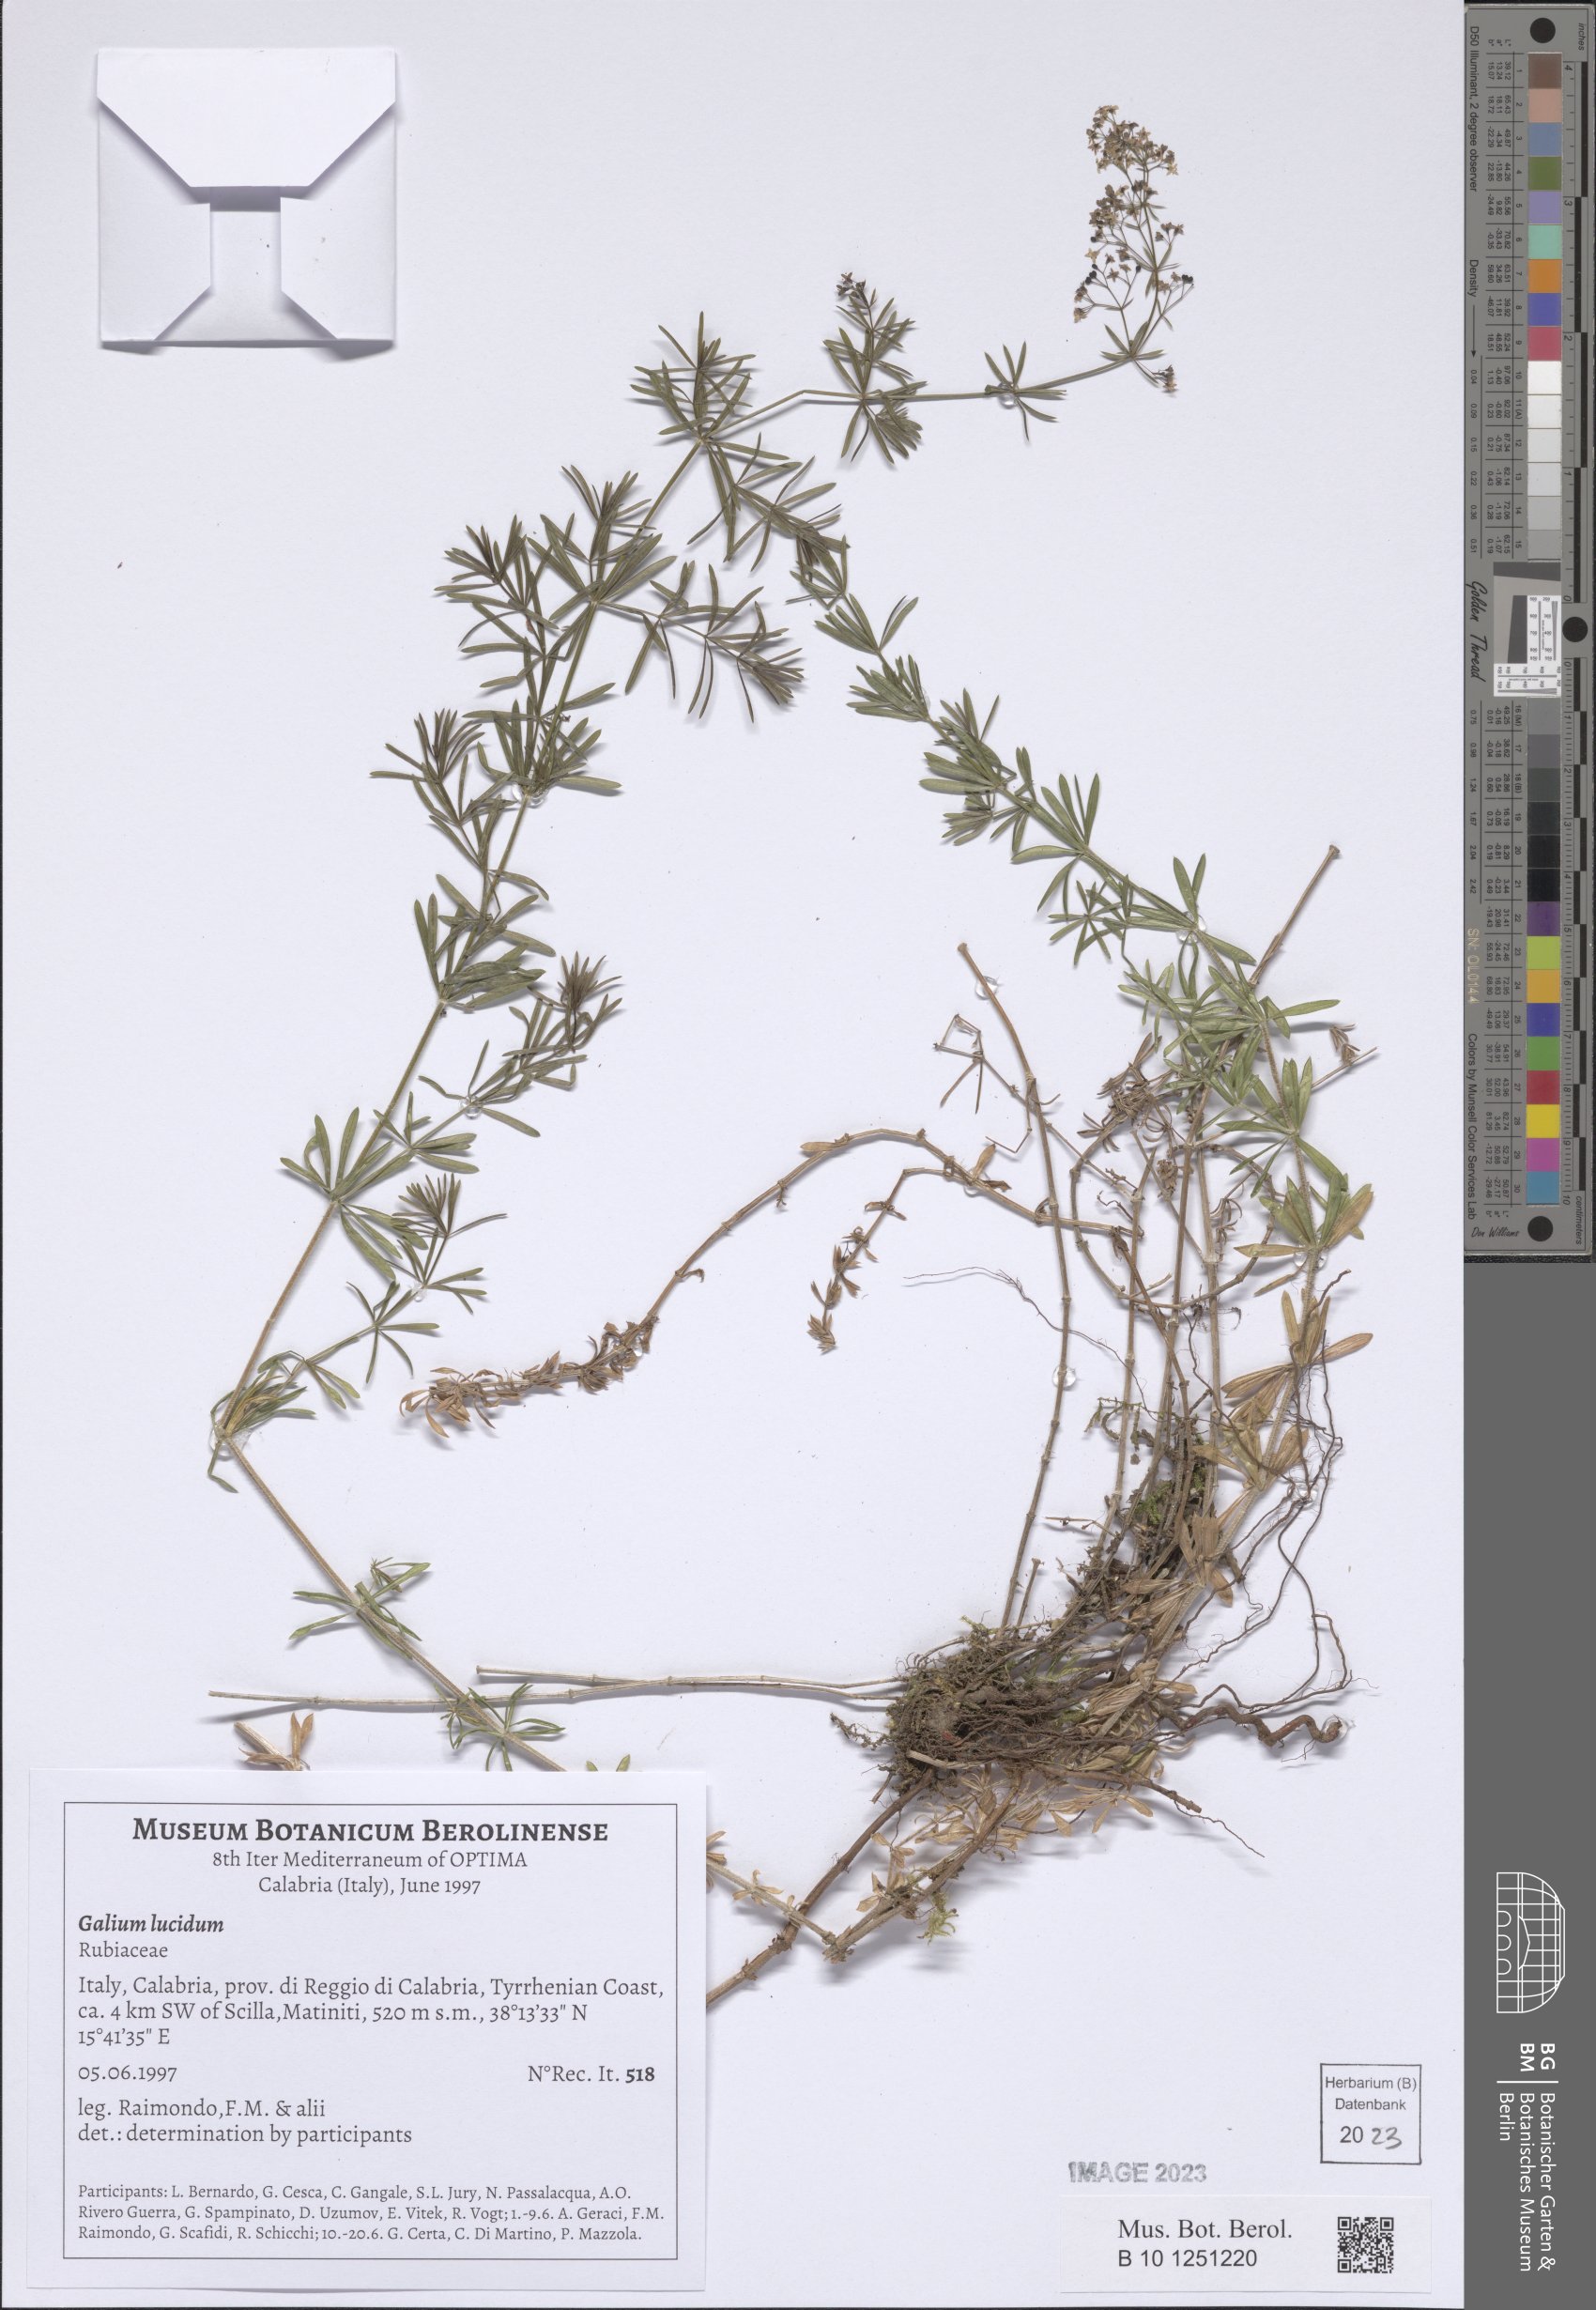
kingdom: Plantae
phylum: Tracheophyta
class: Magnoliopsida
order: Gentianales
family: Rubiaceae
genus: Galium
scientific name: Galium lucidum
